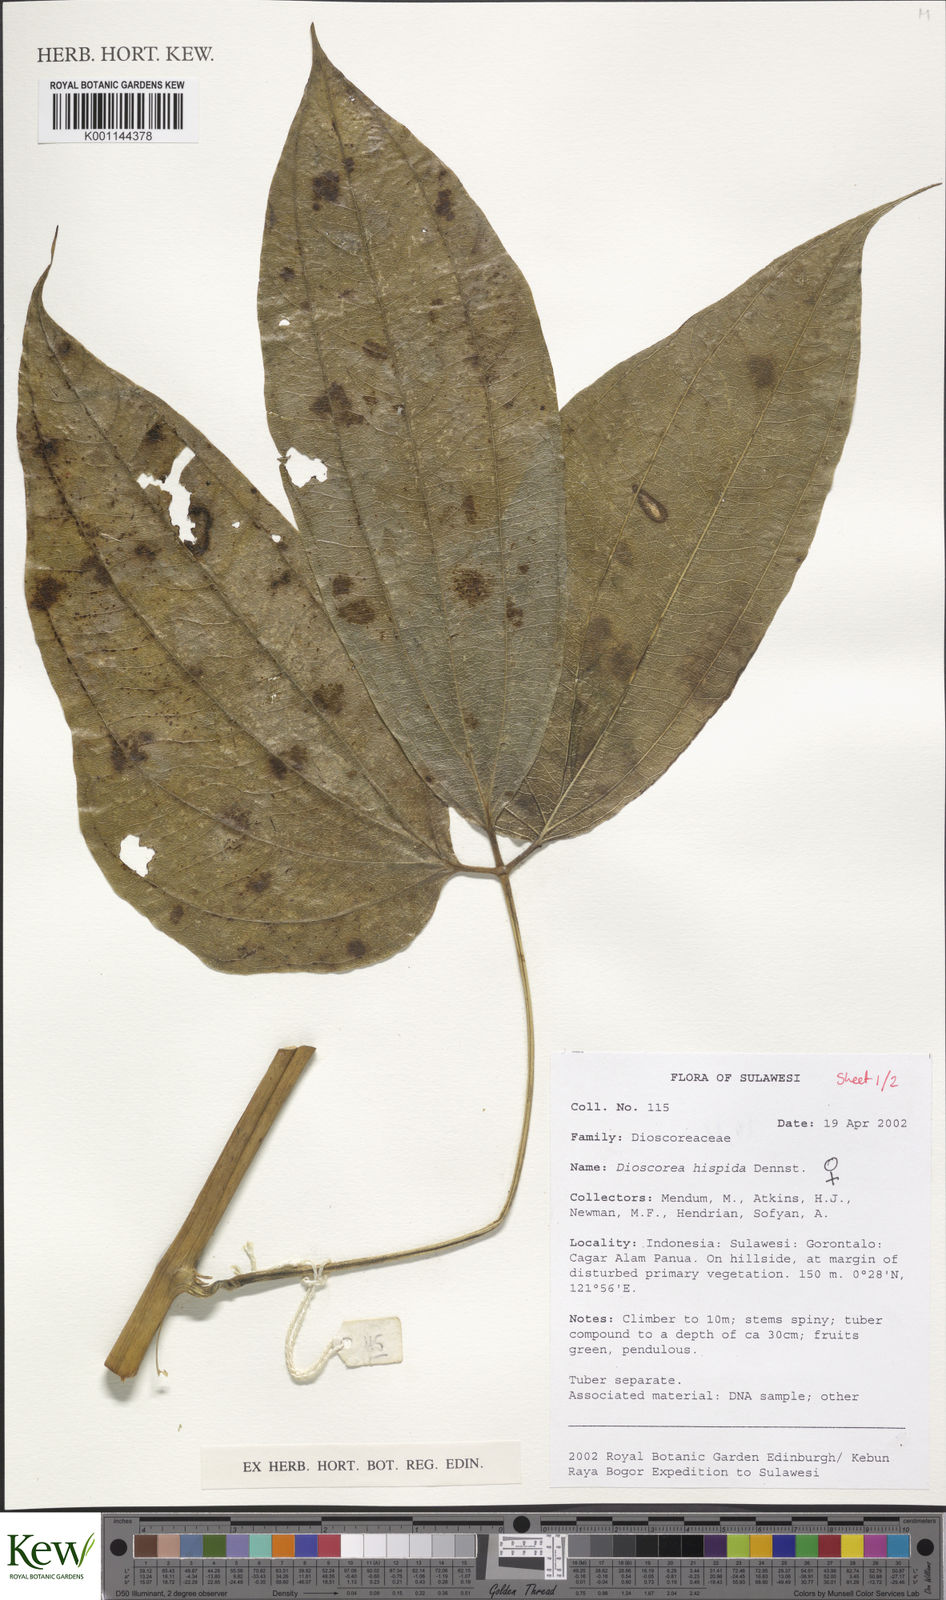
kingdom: Plantae
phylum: Tracheophyta
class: Liliopsida
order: Dioscoreales
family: Dioscoreaceae
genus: Dioscorea
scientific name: Dioscorea hispida
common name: Asiatic bitter yam
